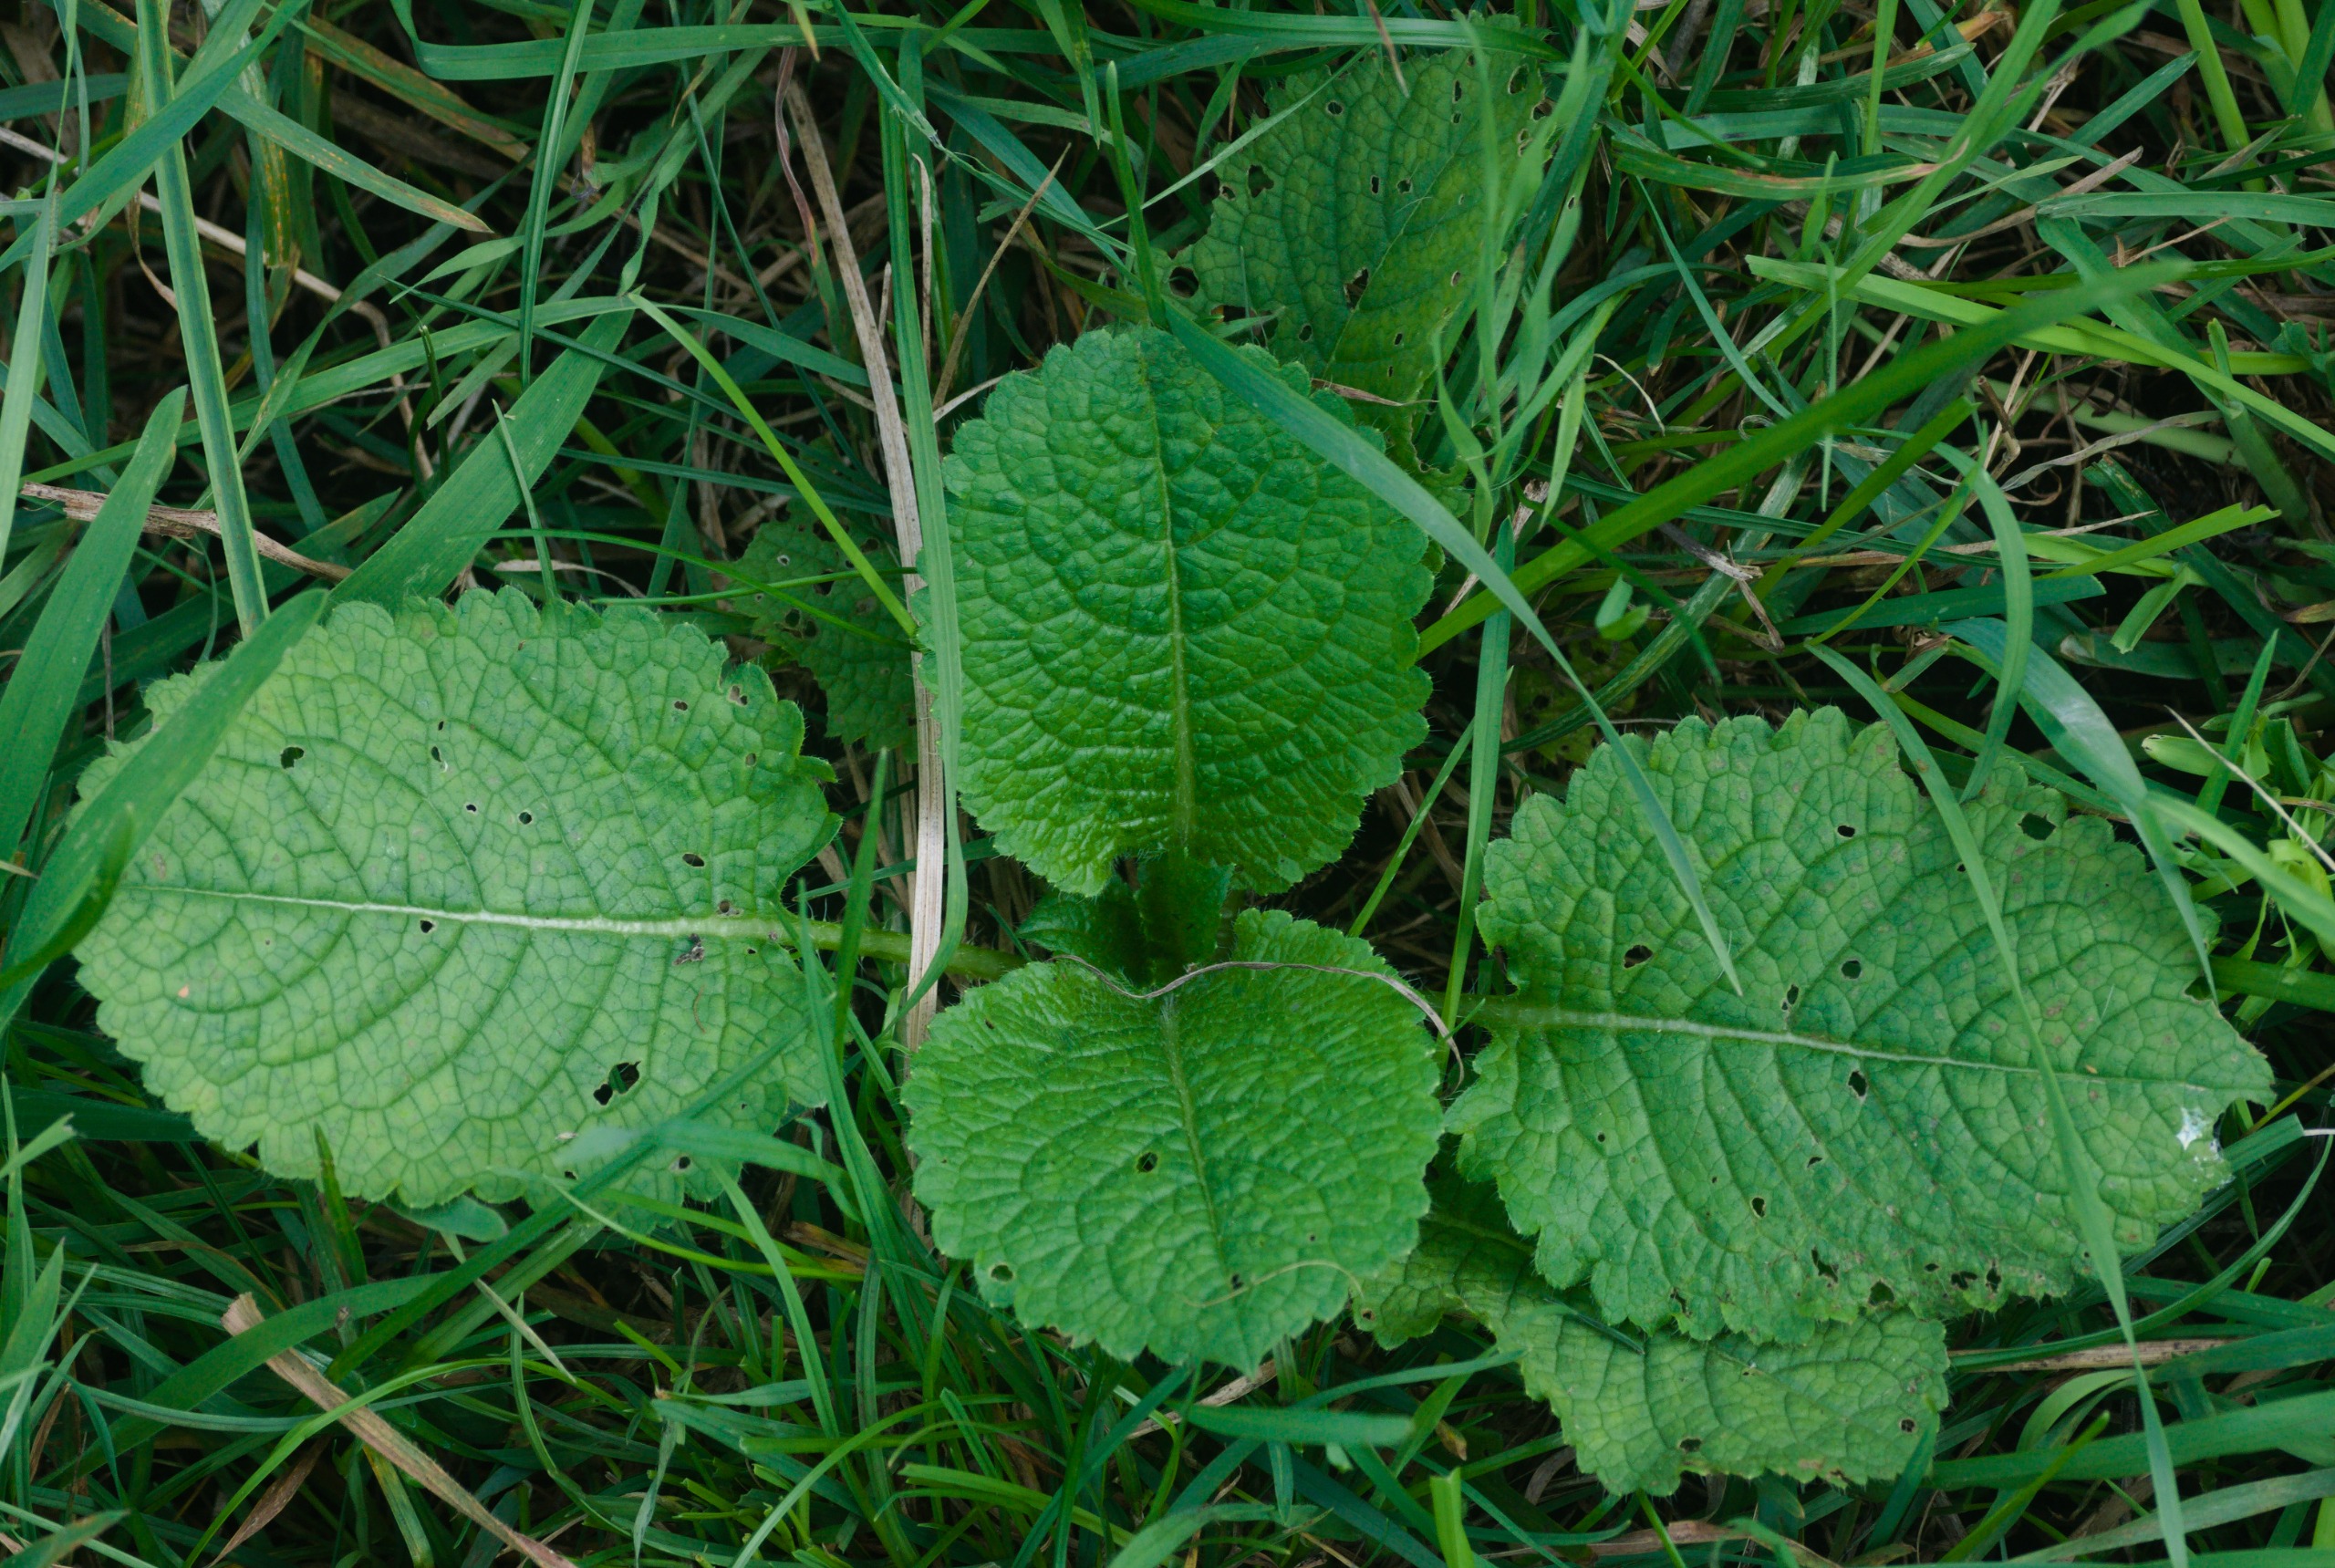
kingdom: Plantae
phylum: Tracheophyta
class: Magnoliopsida
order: Dipsacales
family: Caprifoliaceae
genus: Dipsacus
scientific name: Dipsacus strigosus
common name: Pindsvin-kartebolle
